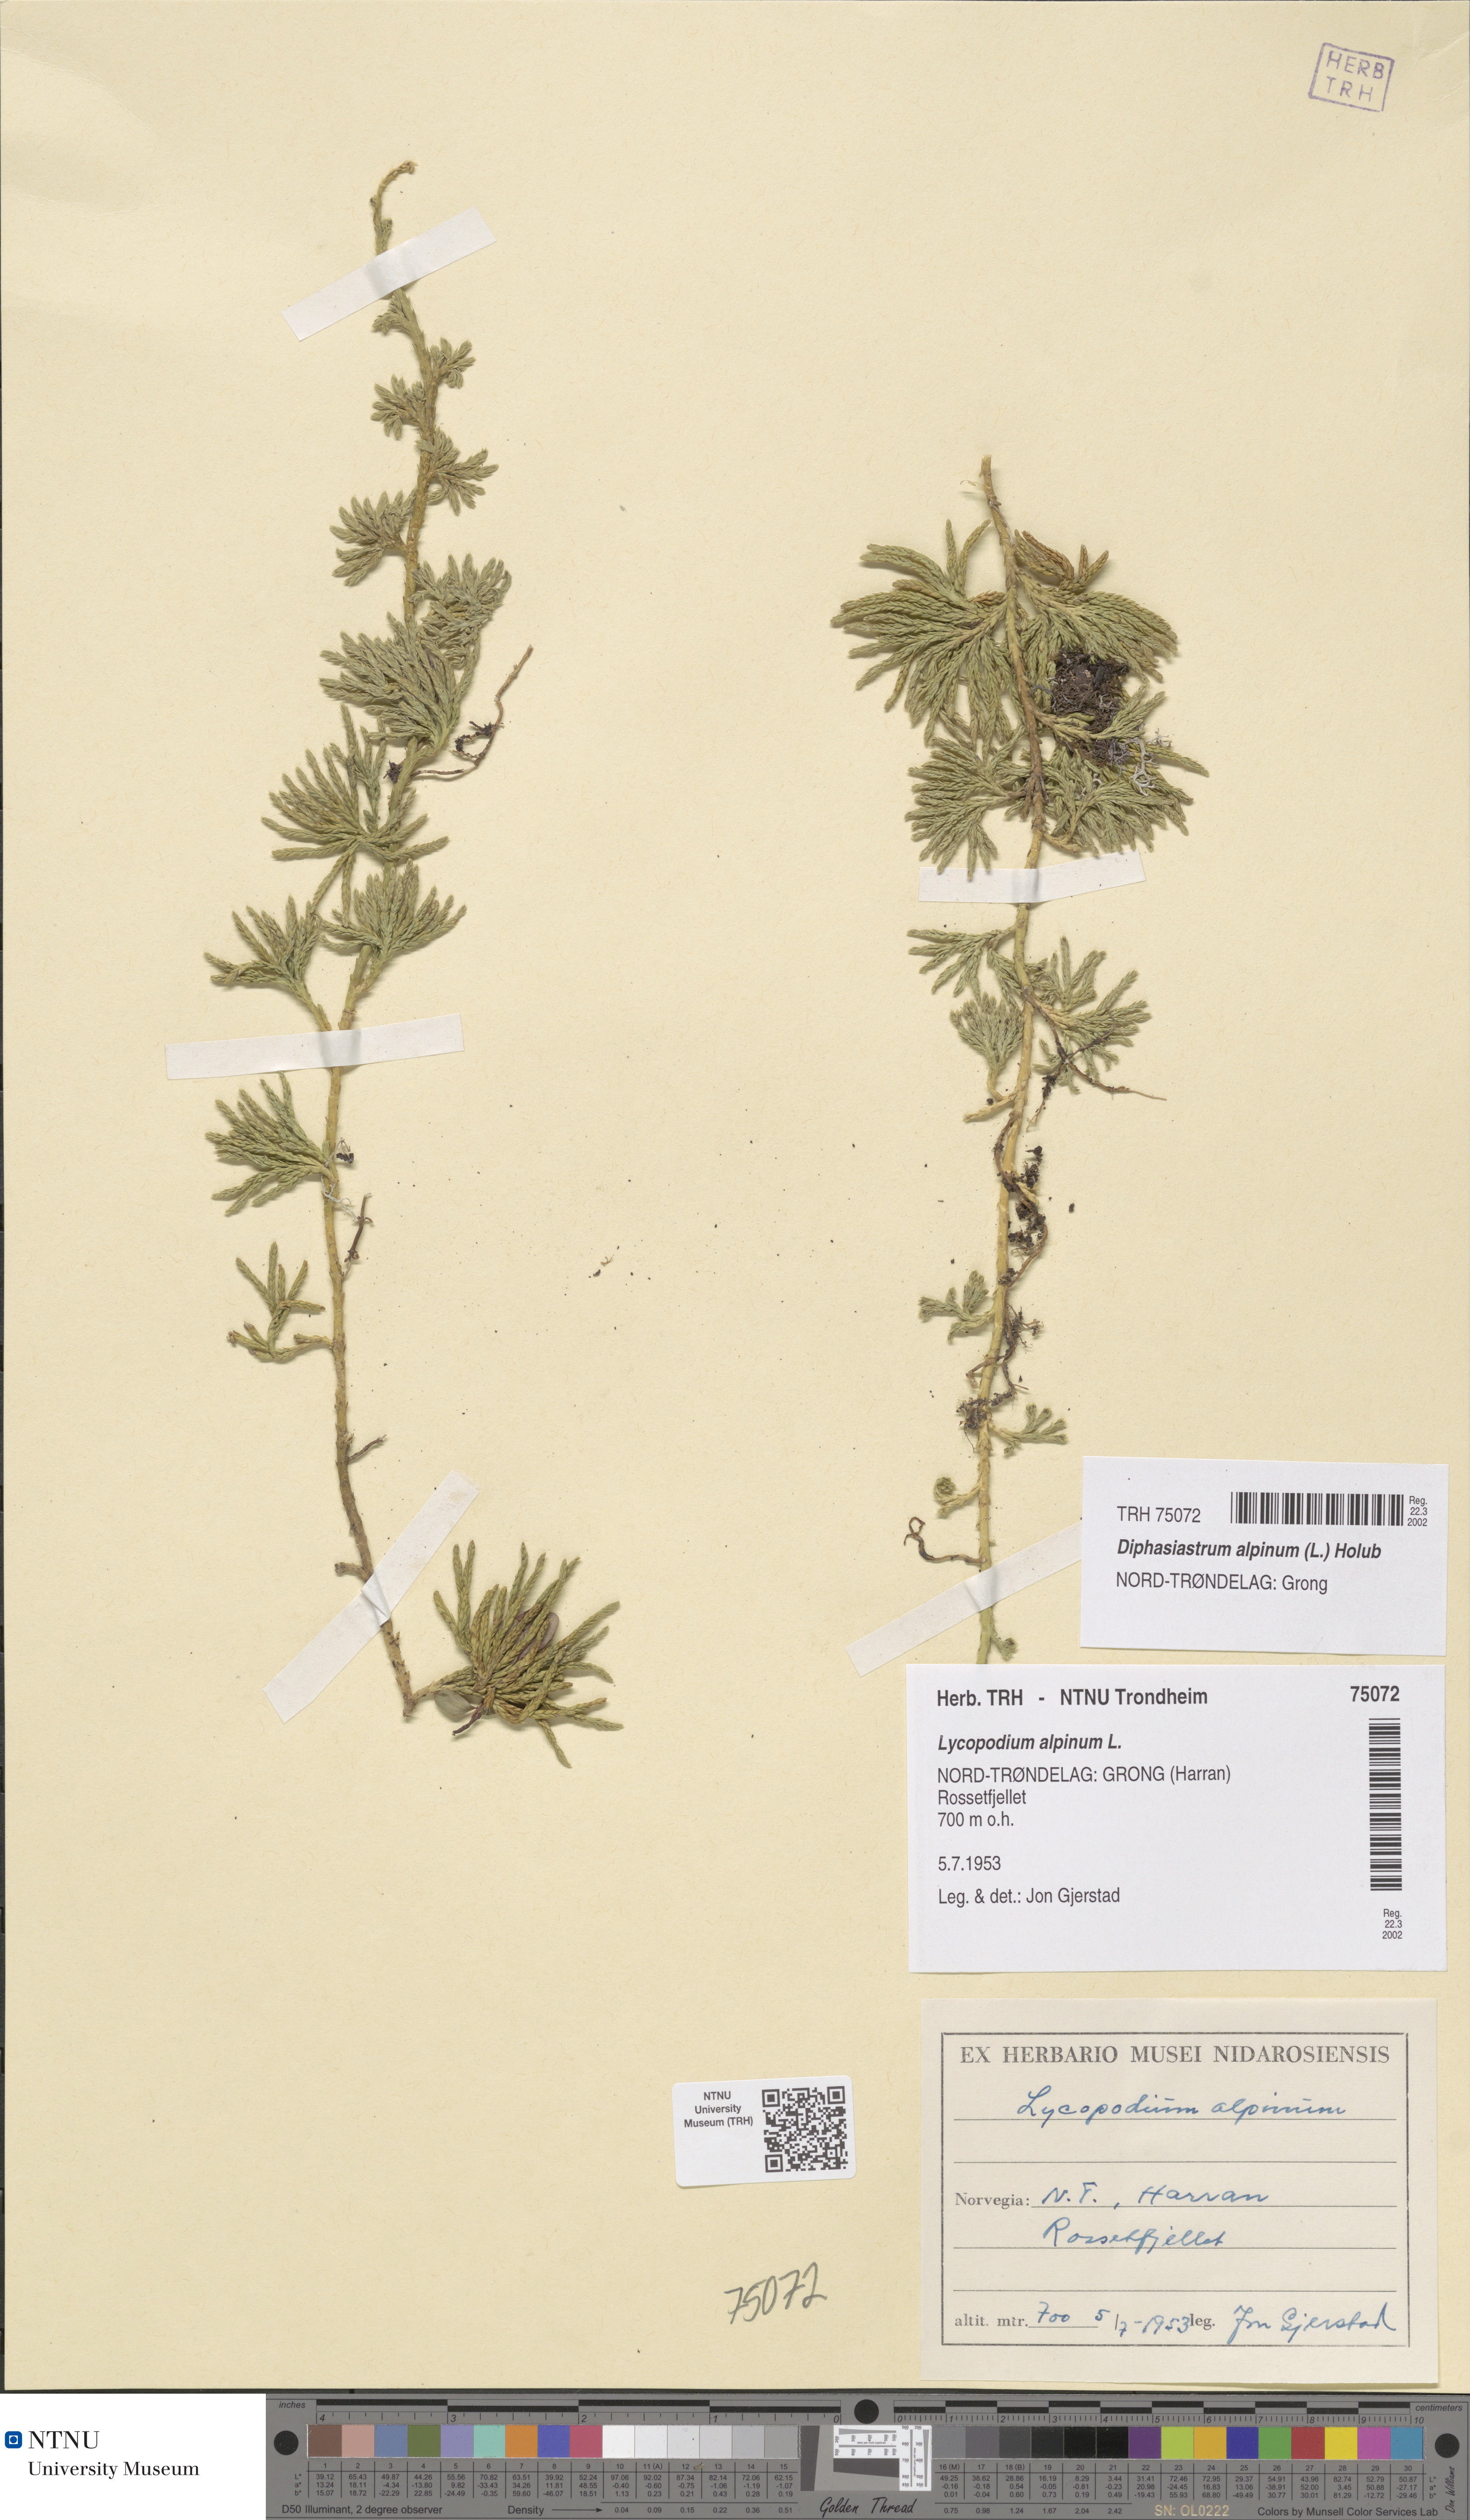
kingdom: Plantae
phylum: Tracheophyta
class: Lycopodiopsida
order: Lycopodiales
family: Lycopodiaceae
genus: Diphasiastrum
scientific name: Diphasiastrum alpinum
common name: Alpine clubmoss
